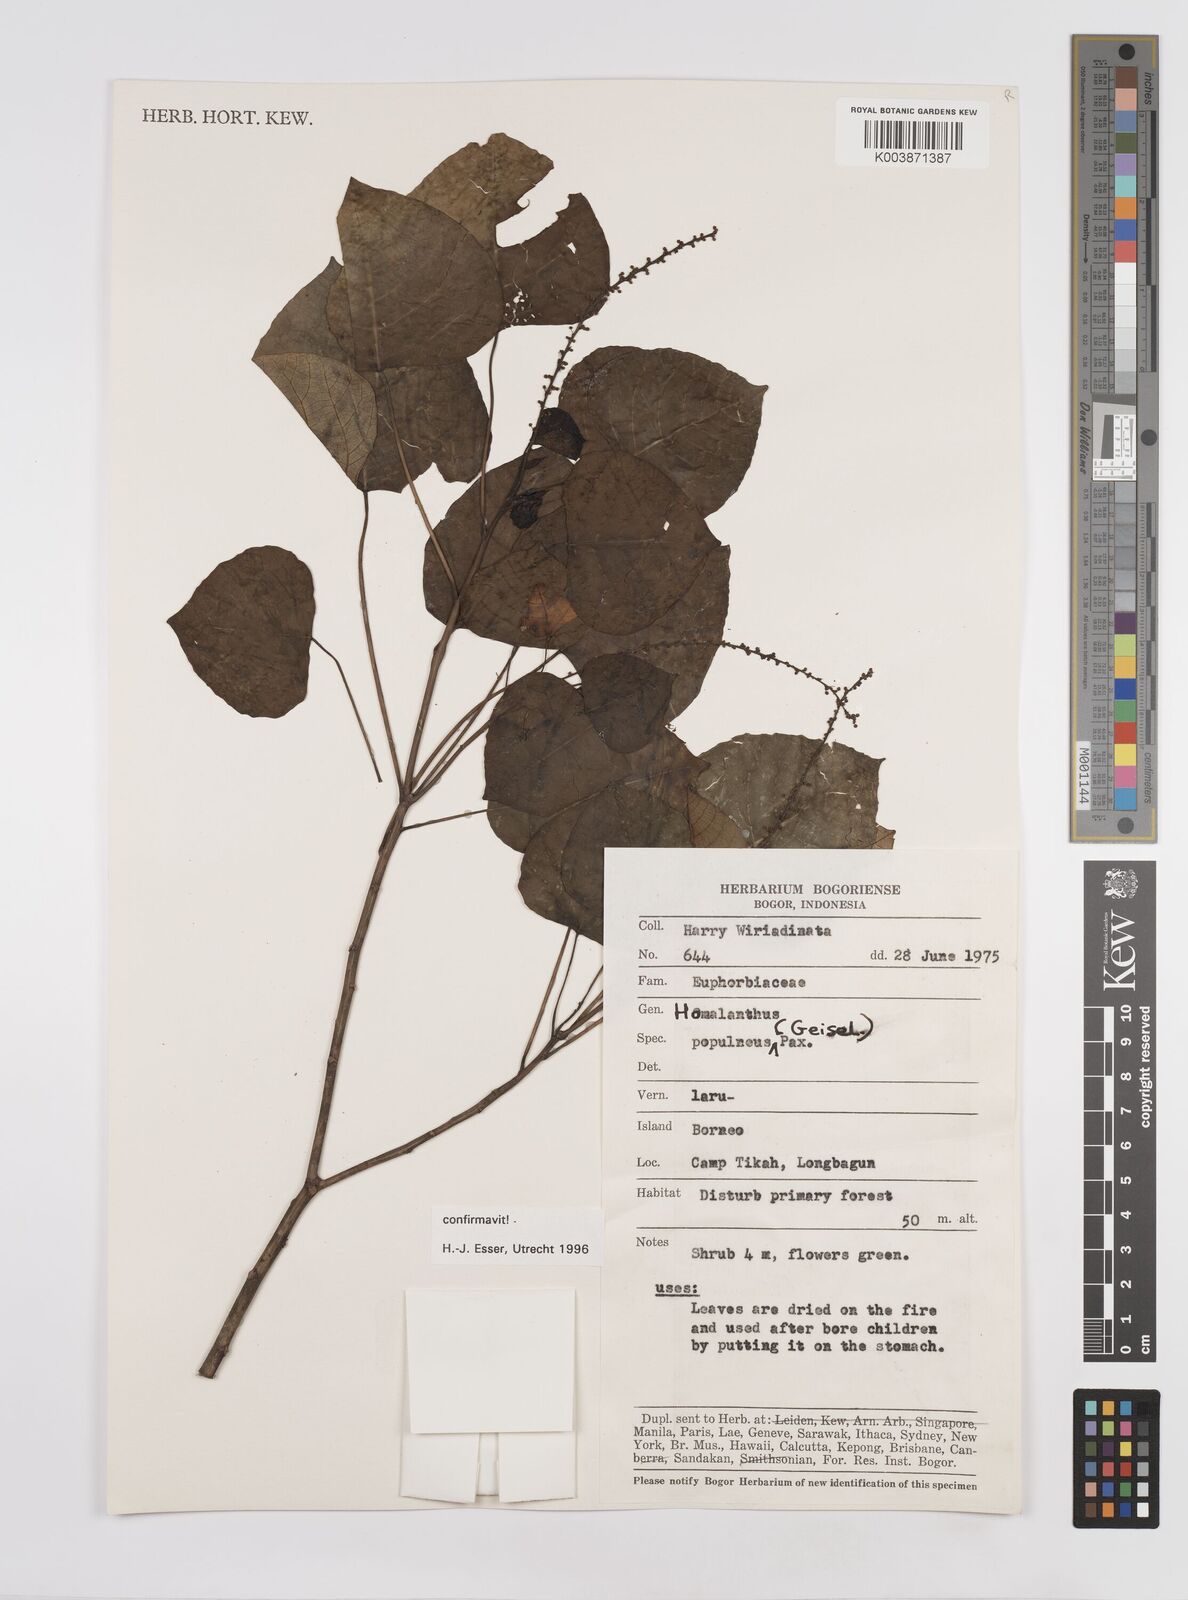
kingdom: Plantae
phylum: Tracheophyta
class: Magnoliopsida
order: Malpighiales
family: Euphorbiaceae
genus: Homalanthus
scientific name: Homalanthus populneus
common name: Spurge
